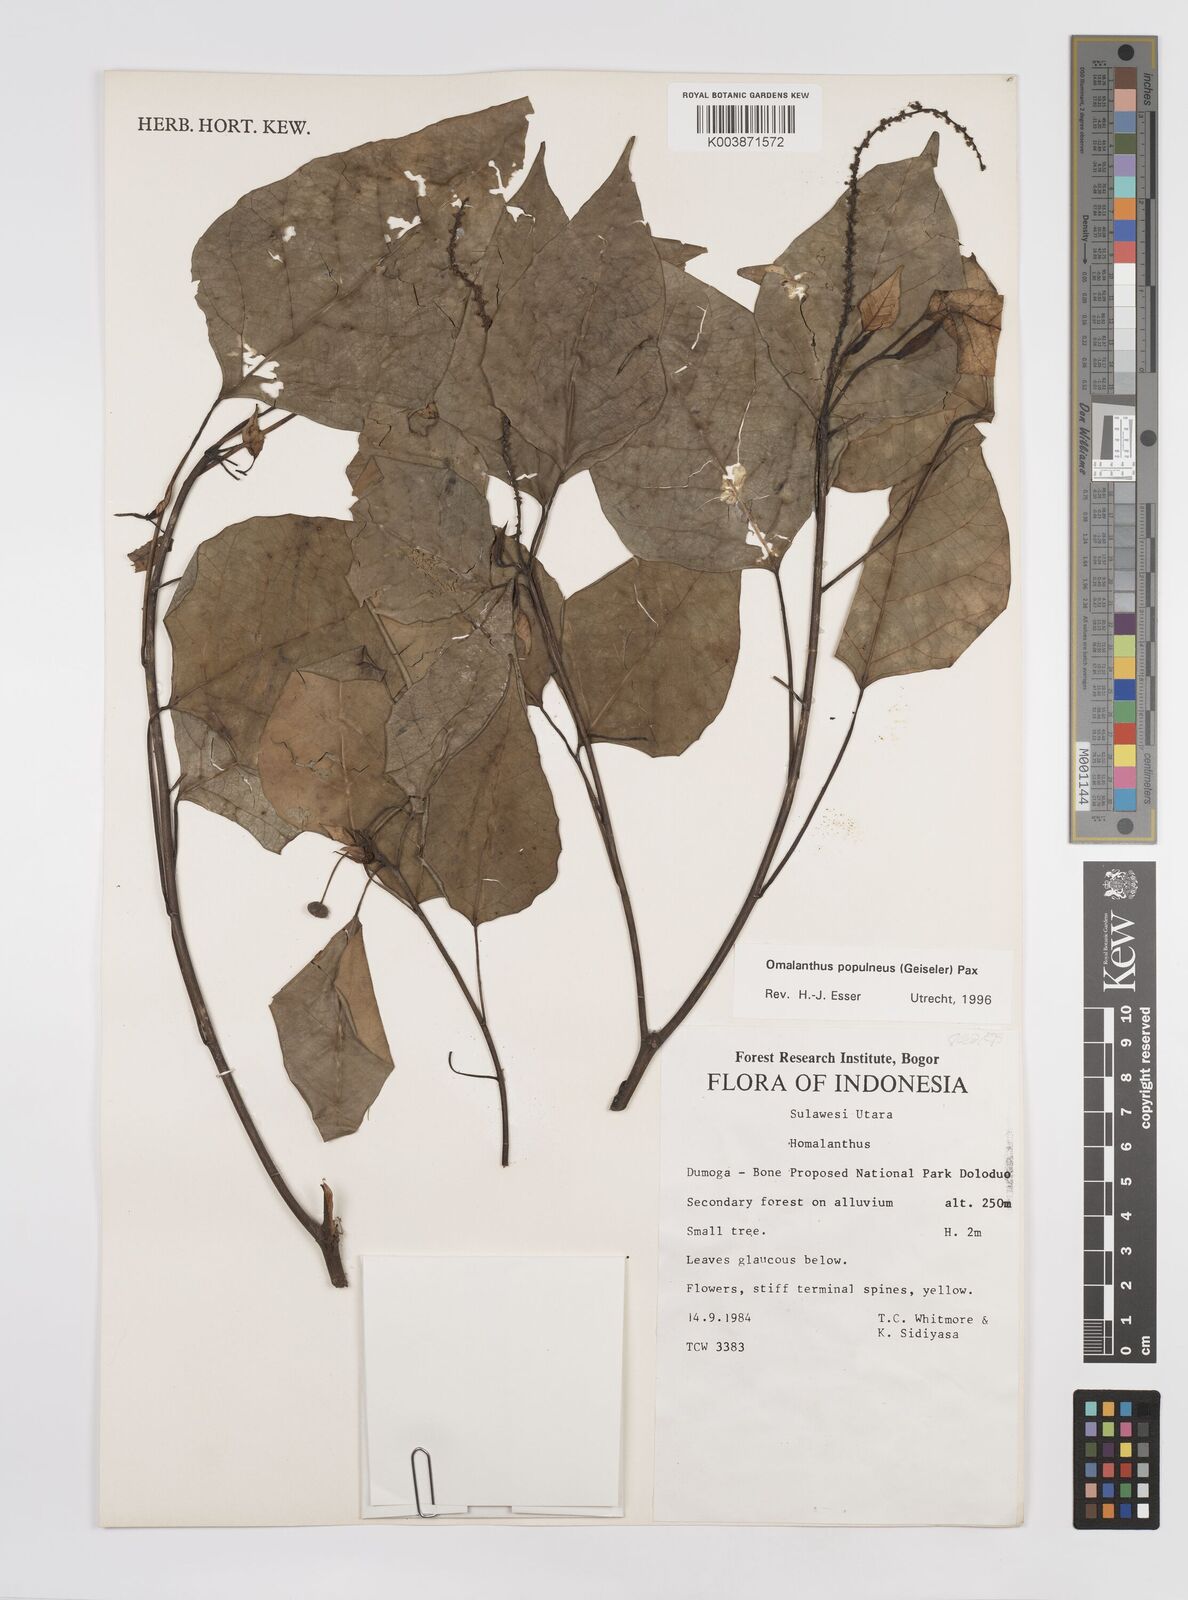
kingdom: Plantae
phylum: Tracheophyta
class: Magnoliopsida
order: Malpighiales
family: Euphorbiaceae
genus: Homalanthus
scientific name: Homalanthus populneus
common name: Spurge
